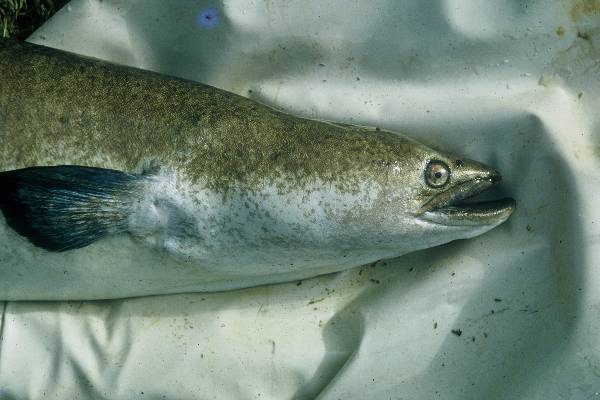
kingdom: Animalia
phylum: Chordata
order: Anguilliformes
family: Anguillidae
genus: Anguilla
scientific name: Anguilla marmorata
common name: Giant mottled eel
